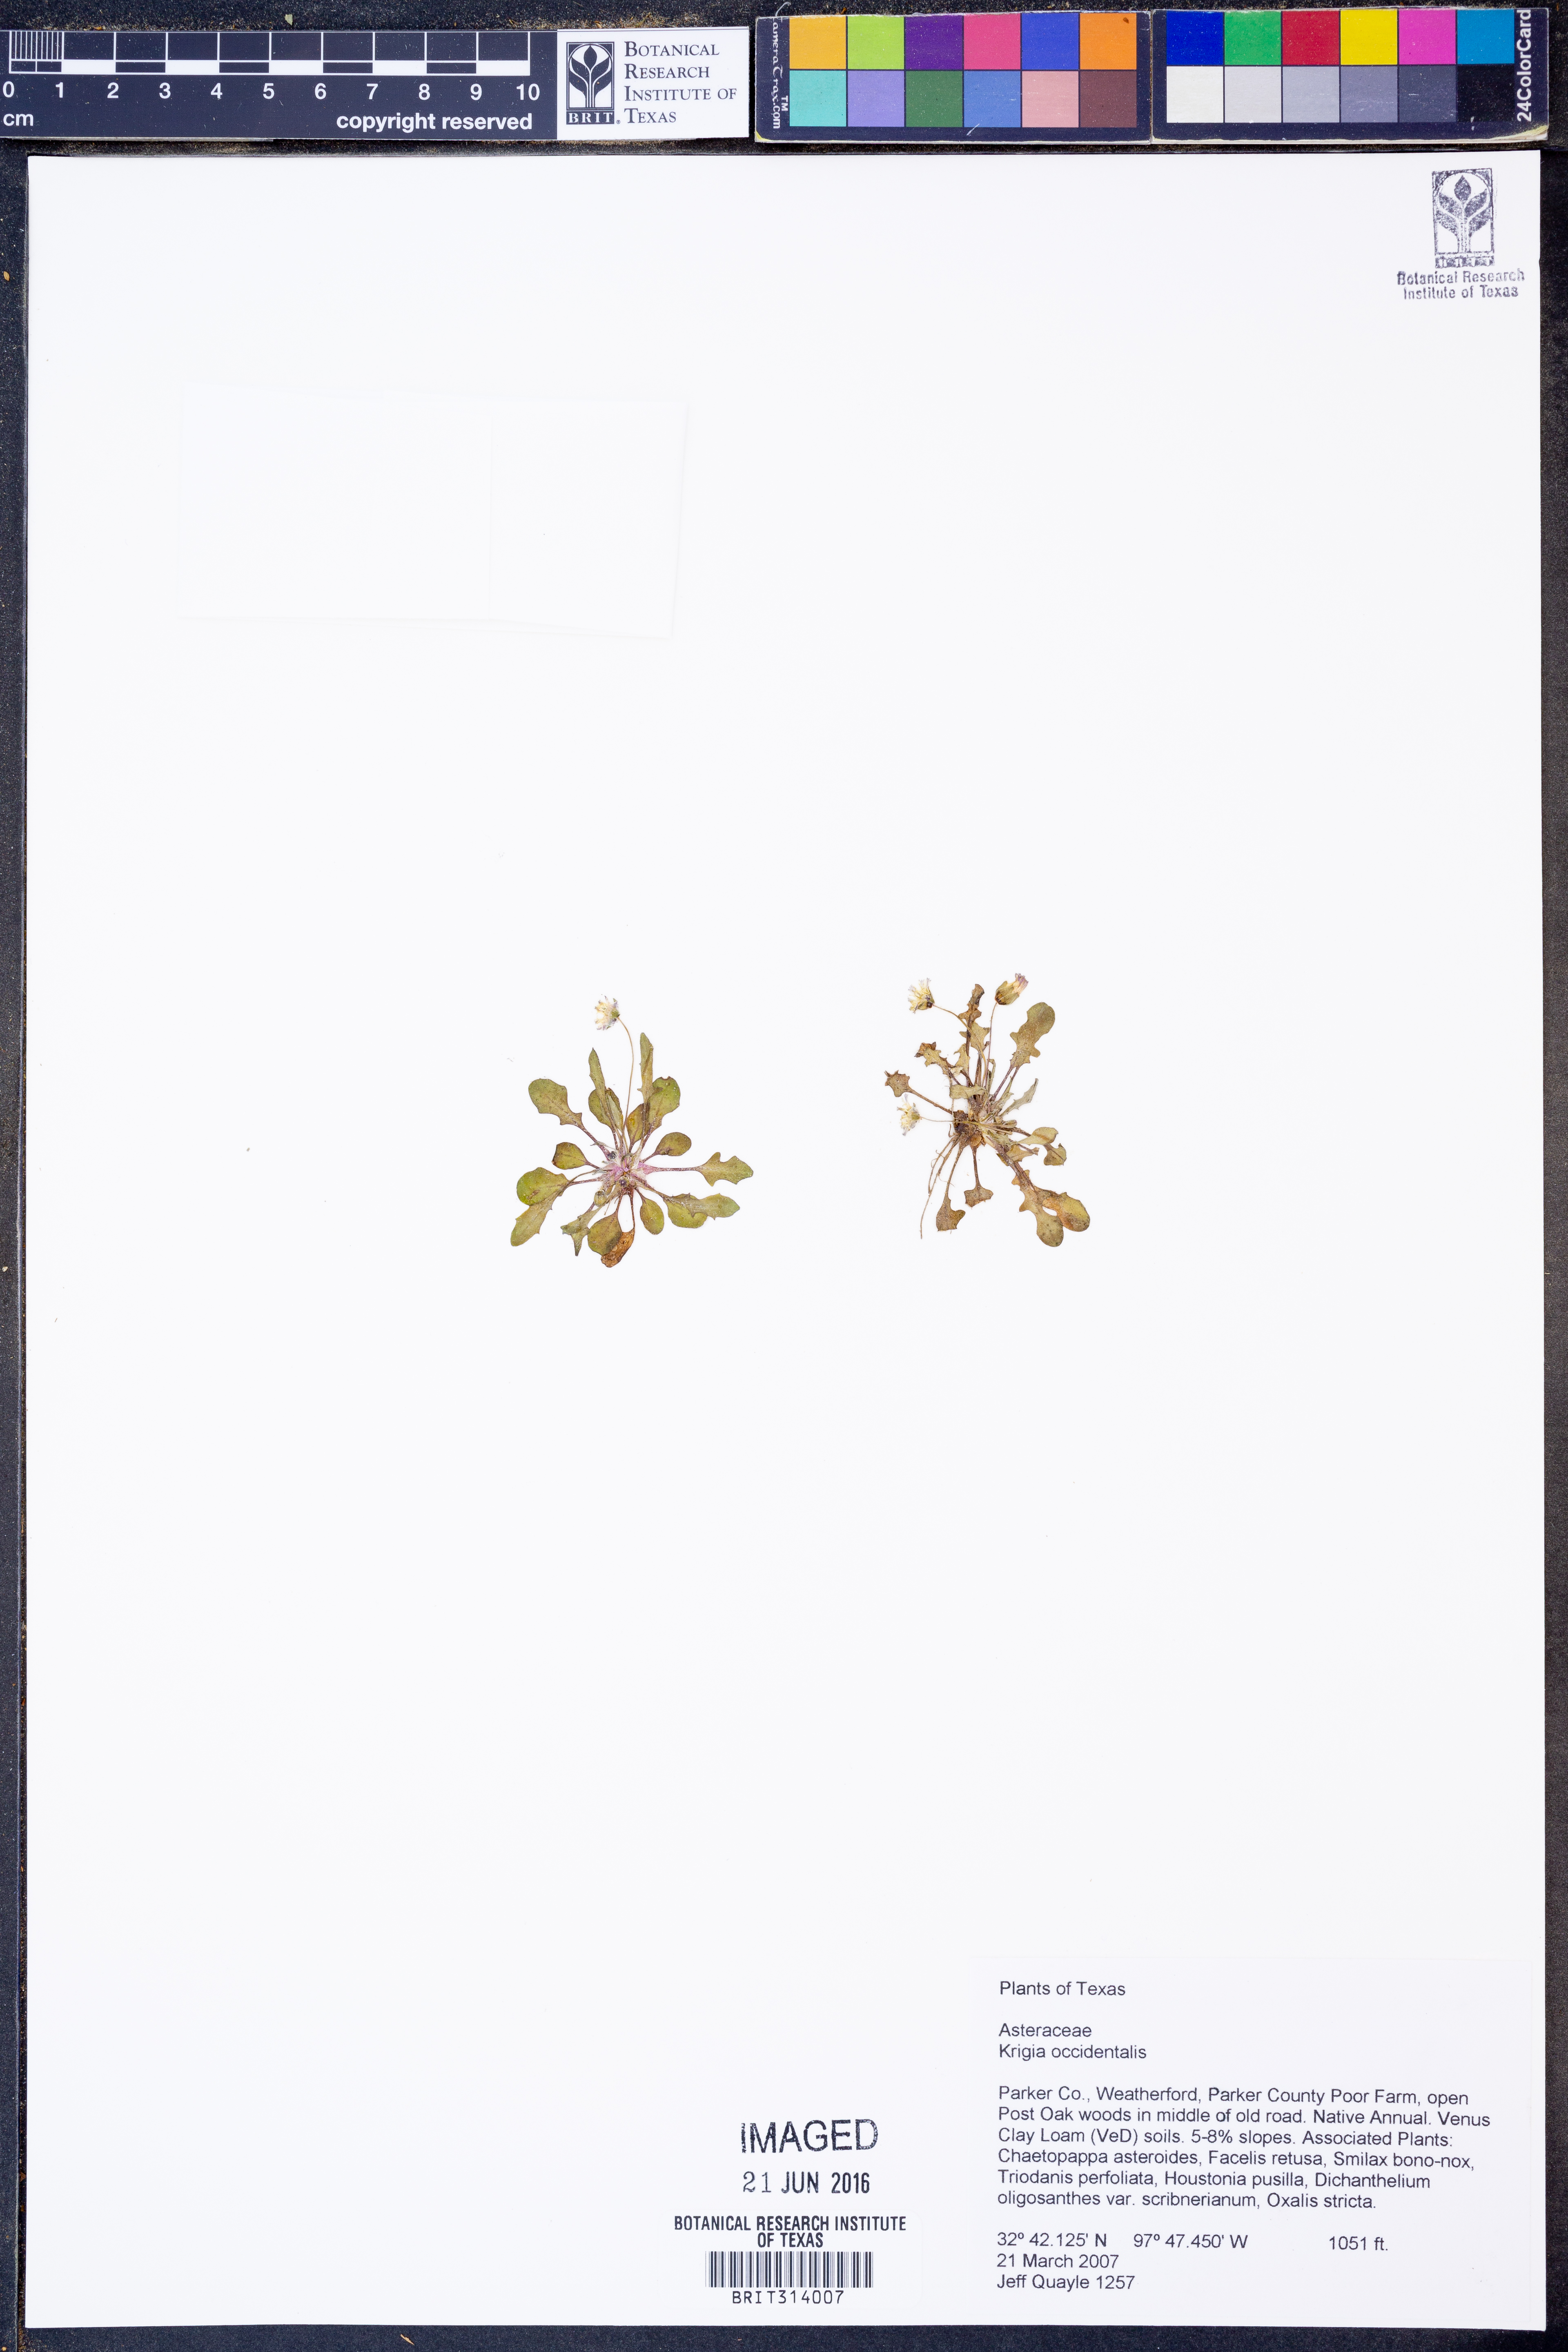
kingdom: Plantae
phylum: Tracheophyta
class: Magnoliopsida
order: Asterales
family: Asteraceae
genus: Krigia
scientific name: Krigia occidentalis
